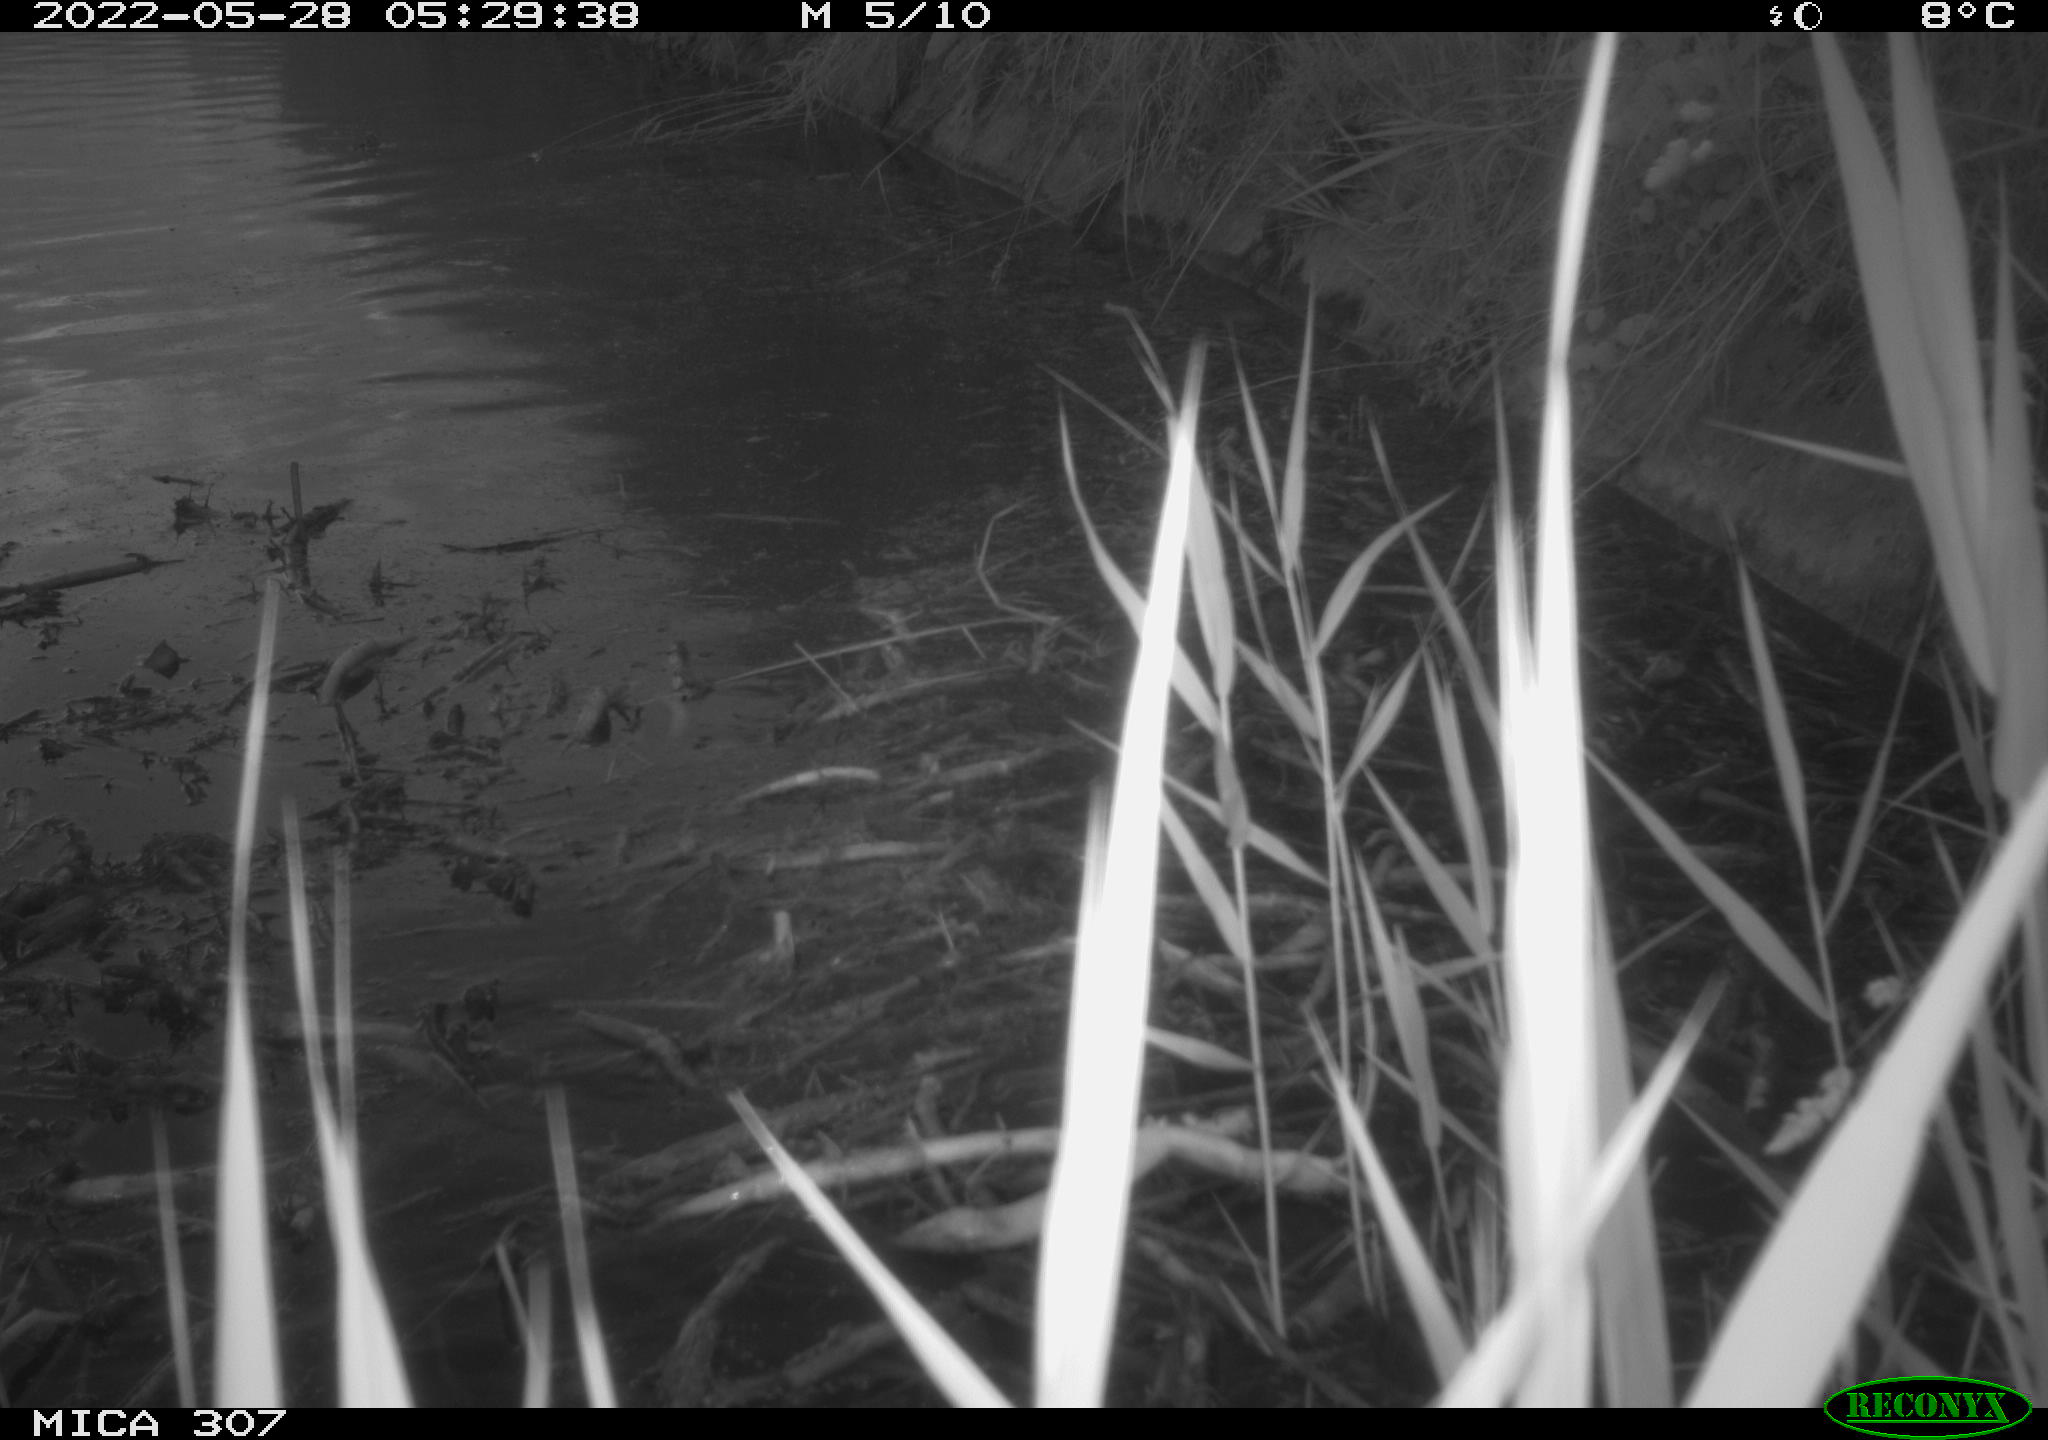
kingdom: Animalia
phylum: Chordata
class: Aves
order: Anseriformes
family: Anatidae
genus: Anas
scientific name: Anas platyrhynchos
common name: Mallard
